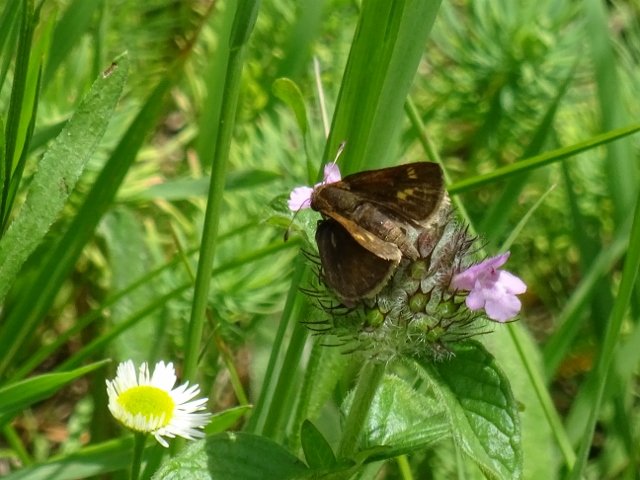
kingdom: Animalia
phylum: Arthropoda
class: Insecta
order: Lepidoptera
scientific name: Lepidoptera
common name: Butterflies
